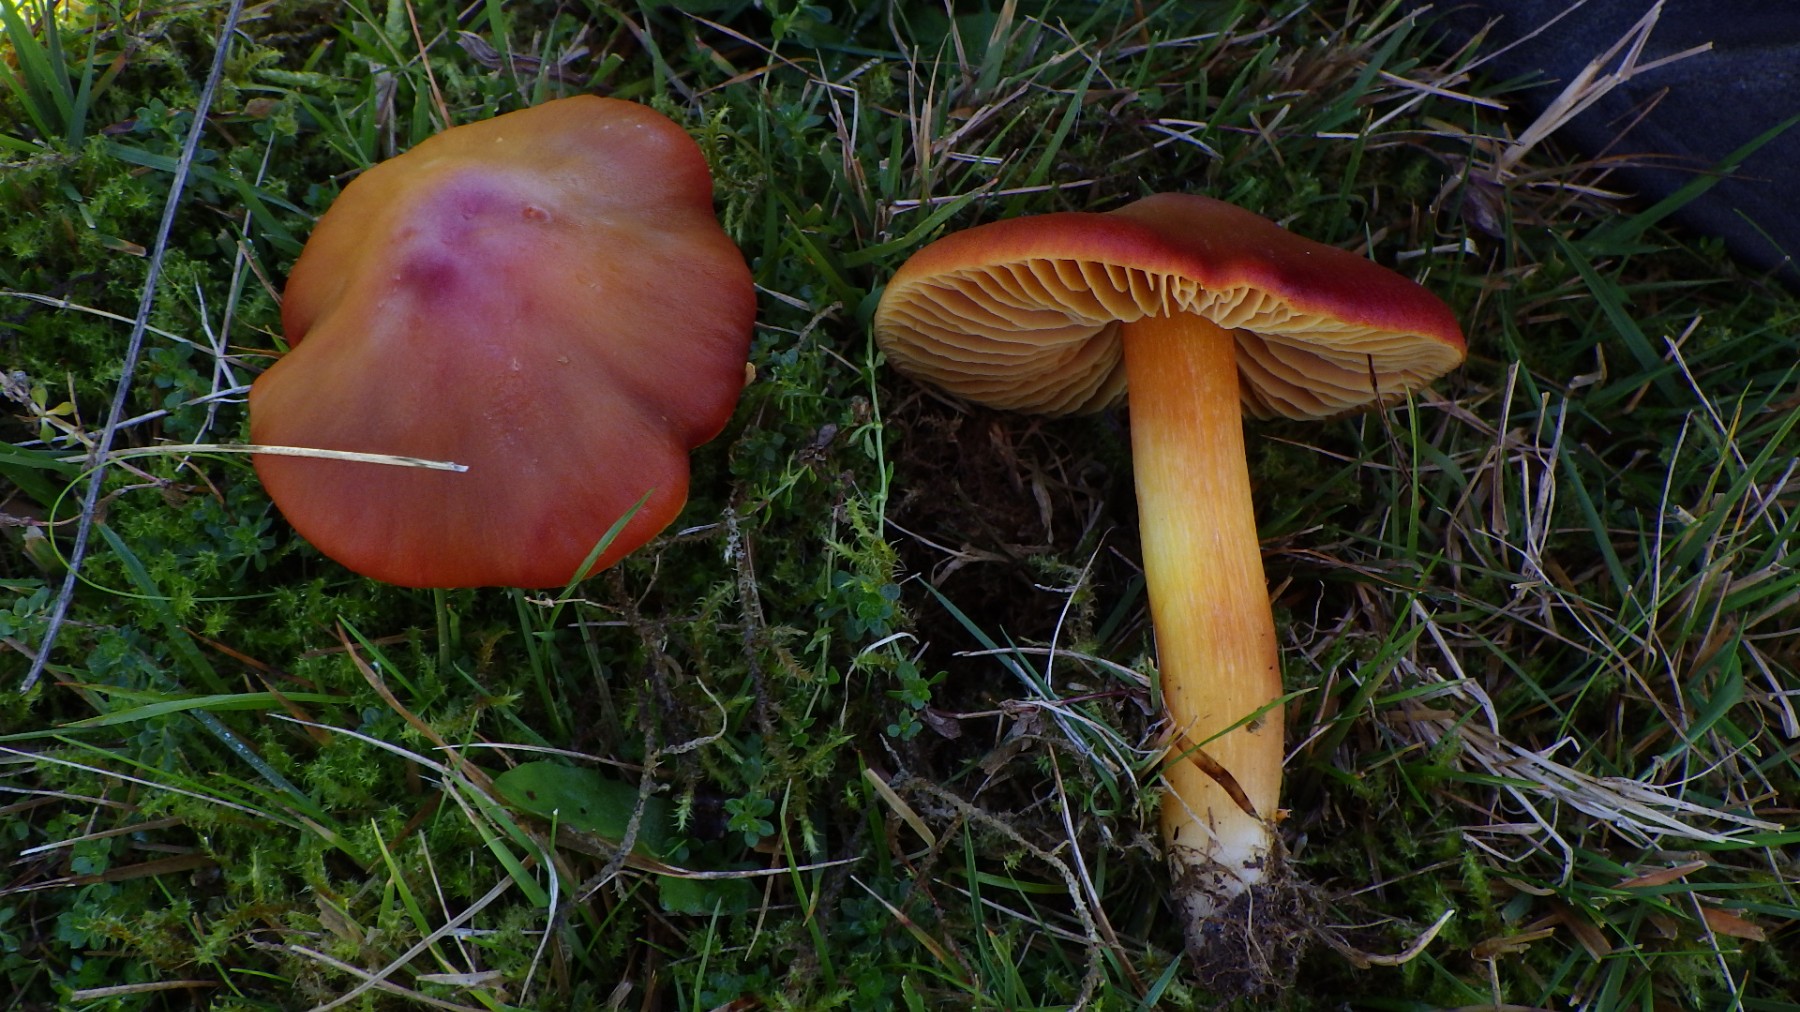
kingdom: Fungi
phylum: Basidiomycota
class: Agaricomycetes
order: Agaricales
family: Hygrophoraceae
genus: Hygrocybe
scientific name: Hygrocybe punicea
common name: skarlagen-vokshat
